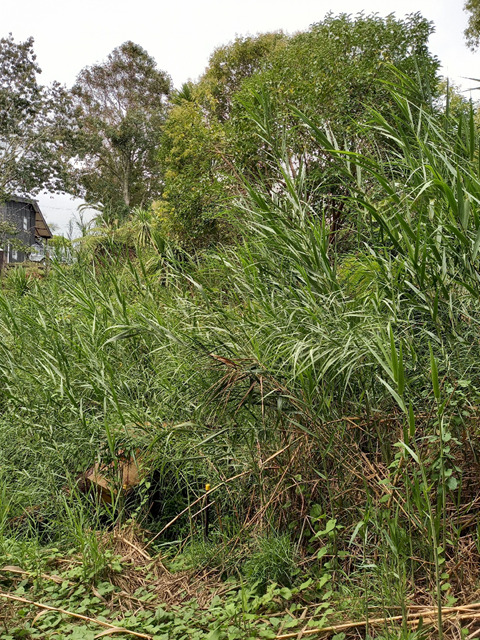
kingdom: Plantae
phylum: Tracheophyta
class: Liliopsida
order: Poales
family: Poaceae
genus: Phragmites
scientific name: Phragmites karka
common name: Tropical reed
